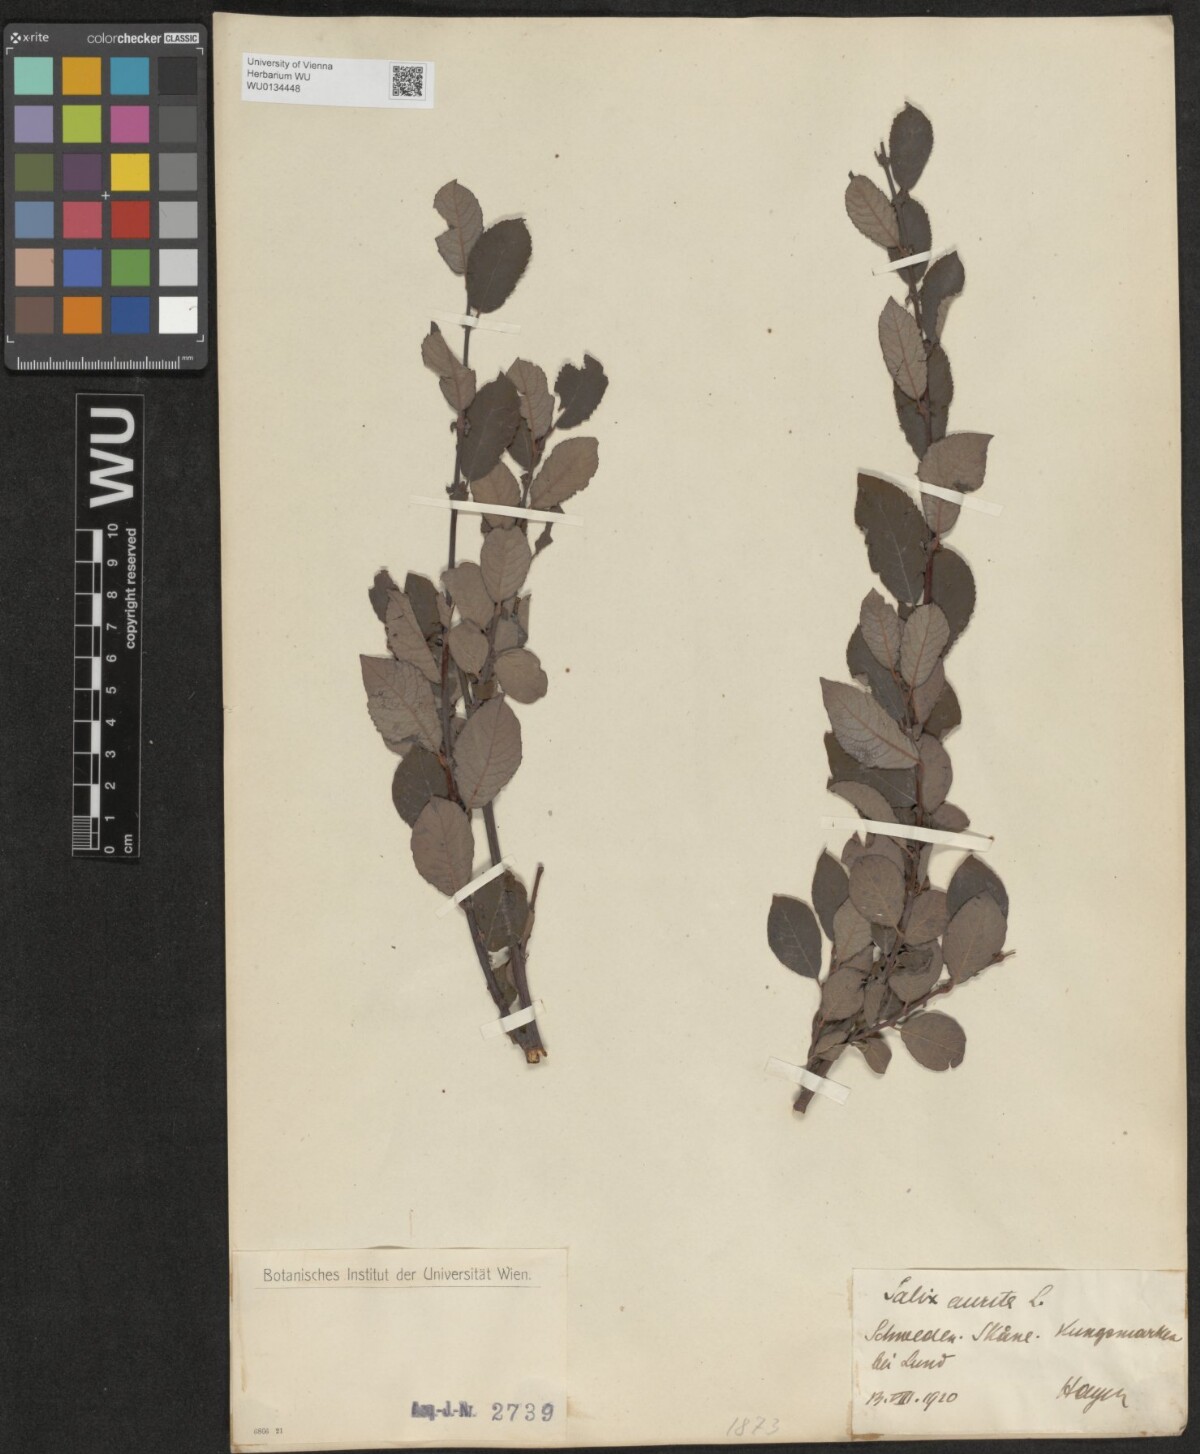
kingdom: Plantae
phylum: Tracheophyta
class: Magnoliopsida
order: Malpighiales
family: Salicaceae
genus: Salix
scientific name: Salix aurita
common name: Eared willow
